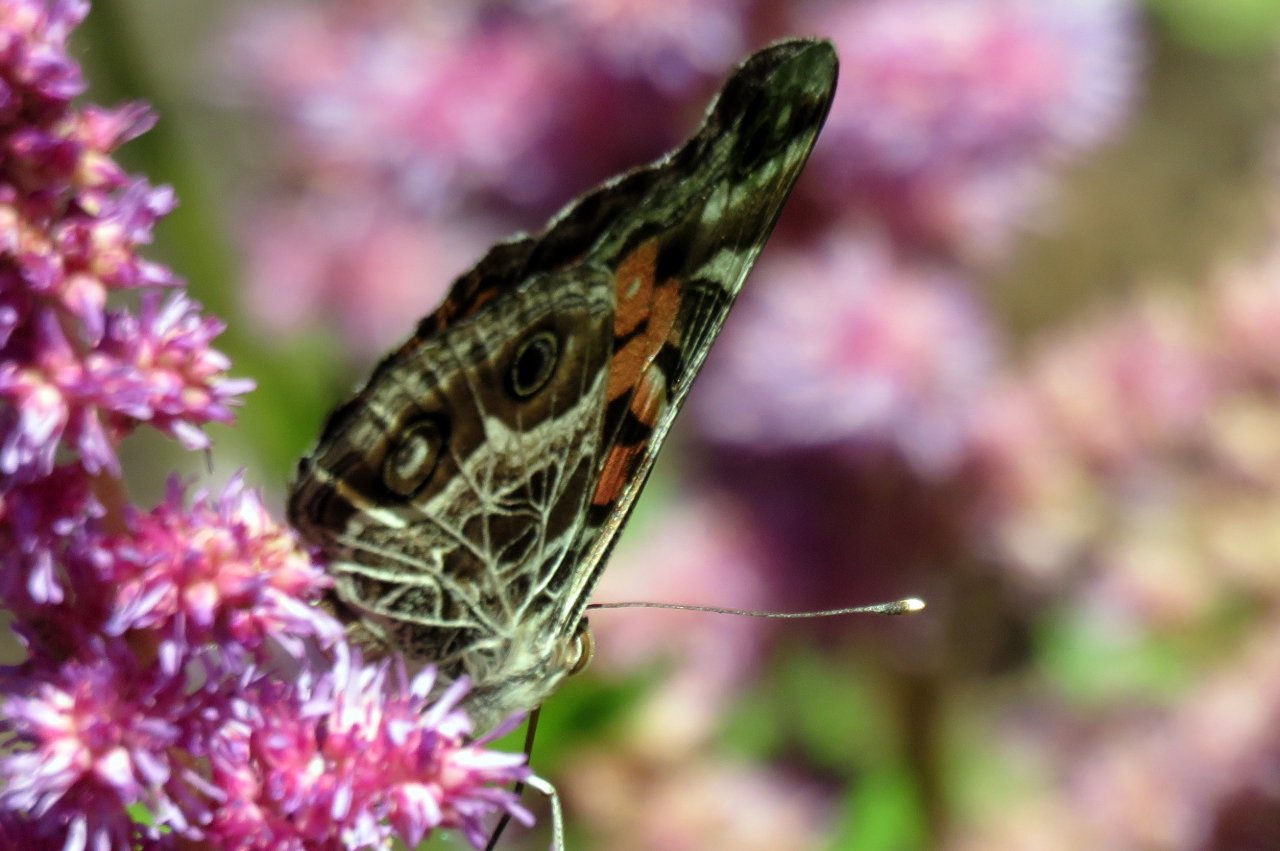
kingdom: Animalia
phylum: Arthropoda
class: Insecta
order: Lepidoptera
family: Nymphalidae
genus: Vanessa
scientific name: Vanessa virginiensis
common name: American Lady
